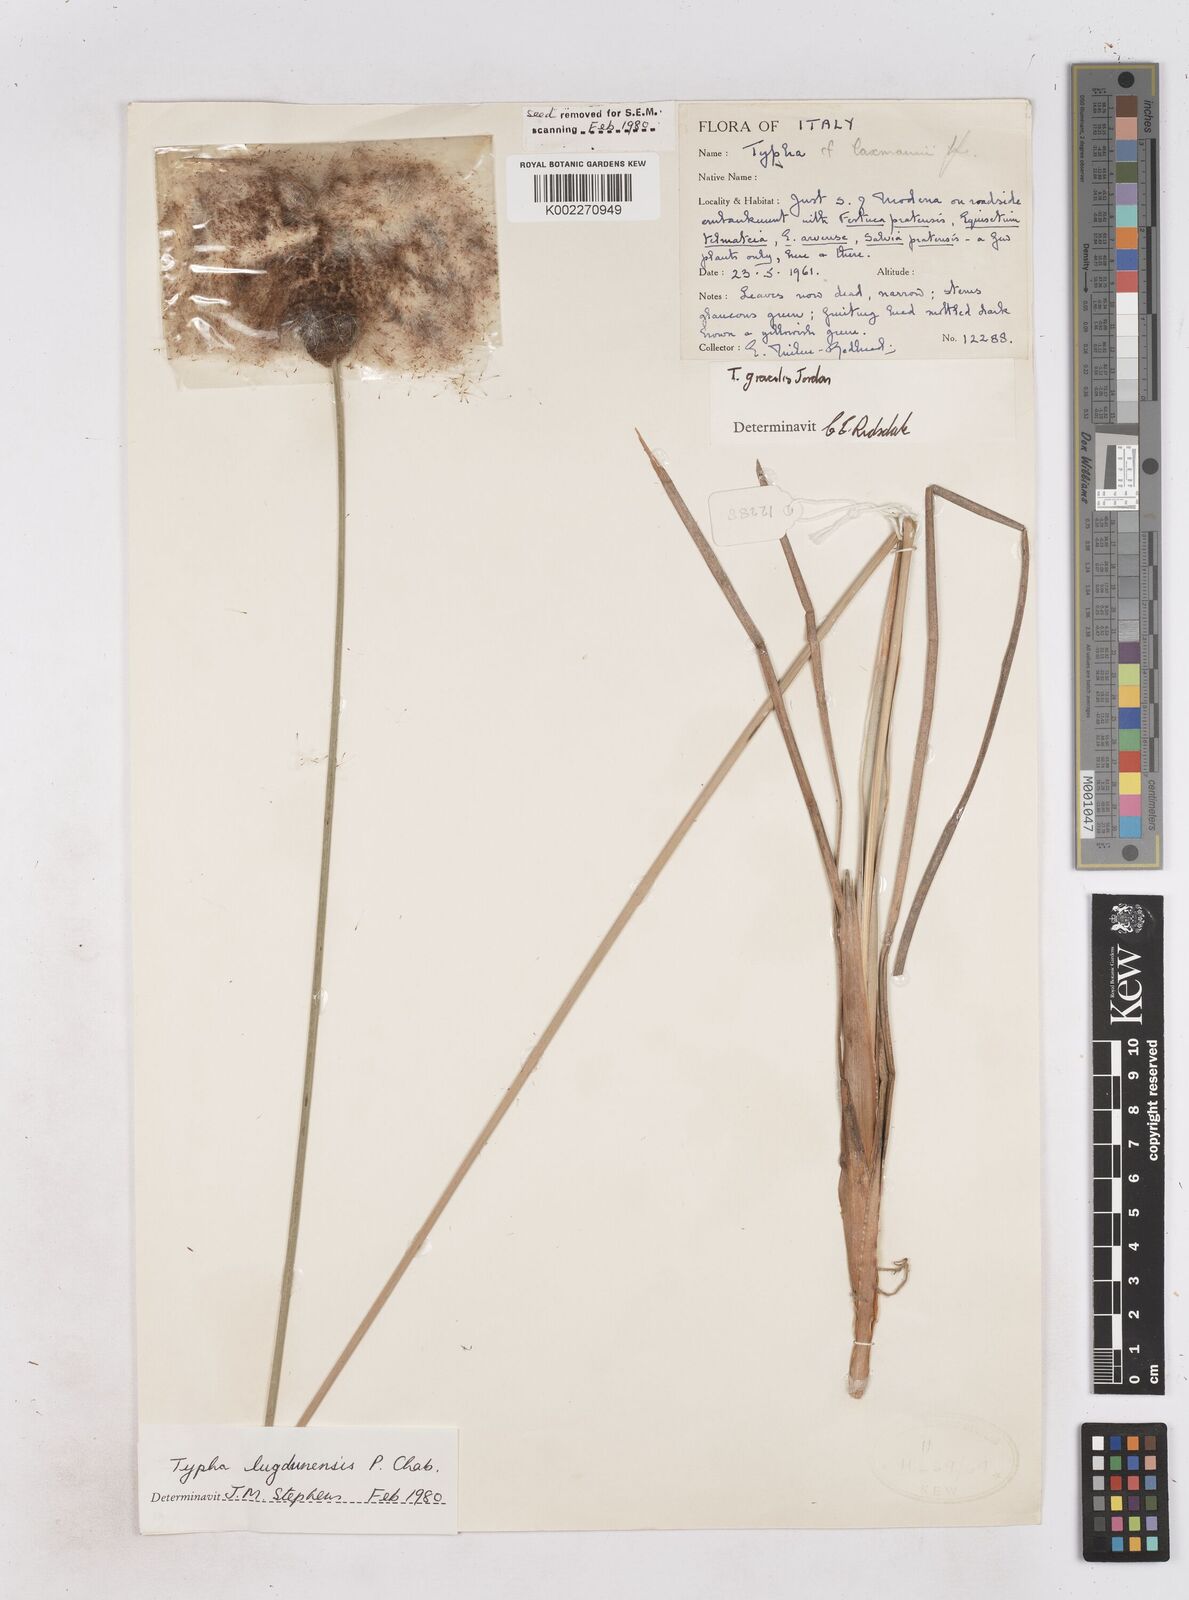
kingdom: Plantae
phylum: Tracheophyta
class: Liliopsida
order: Poales
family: Typhaceae
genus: Typha
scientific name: Typha lugdunensis
